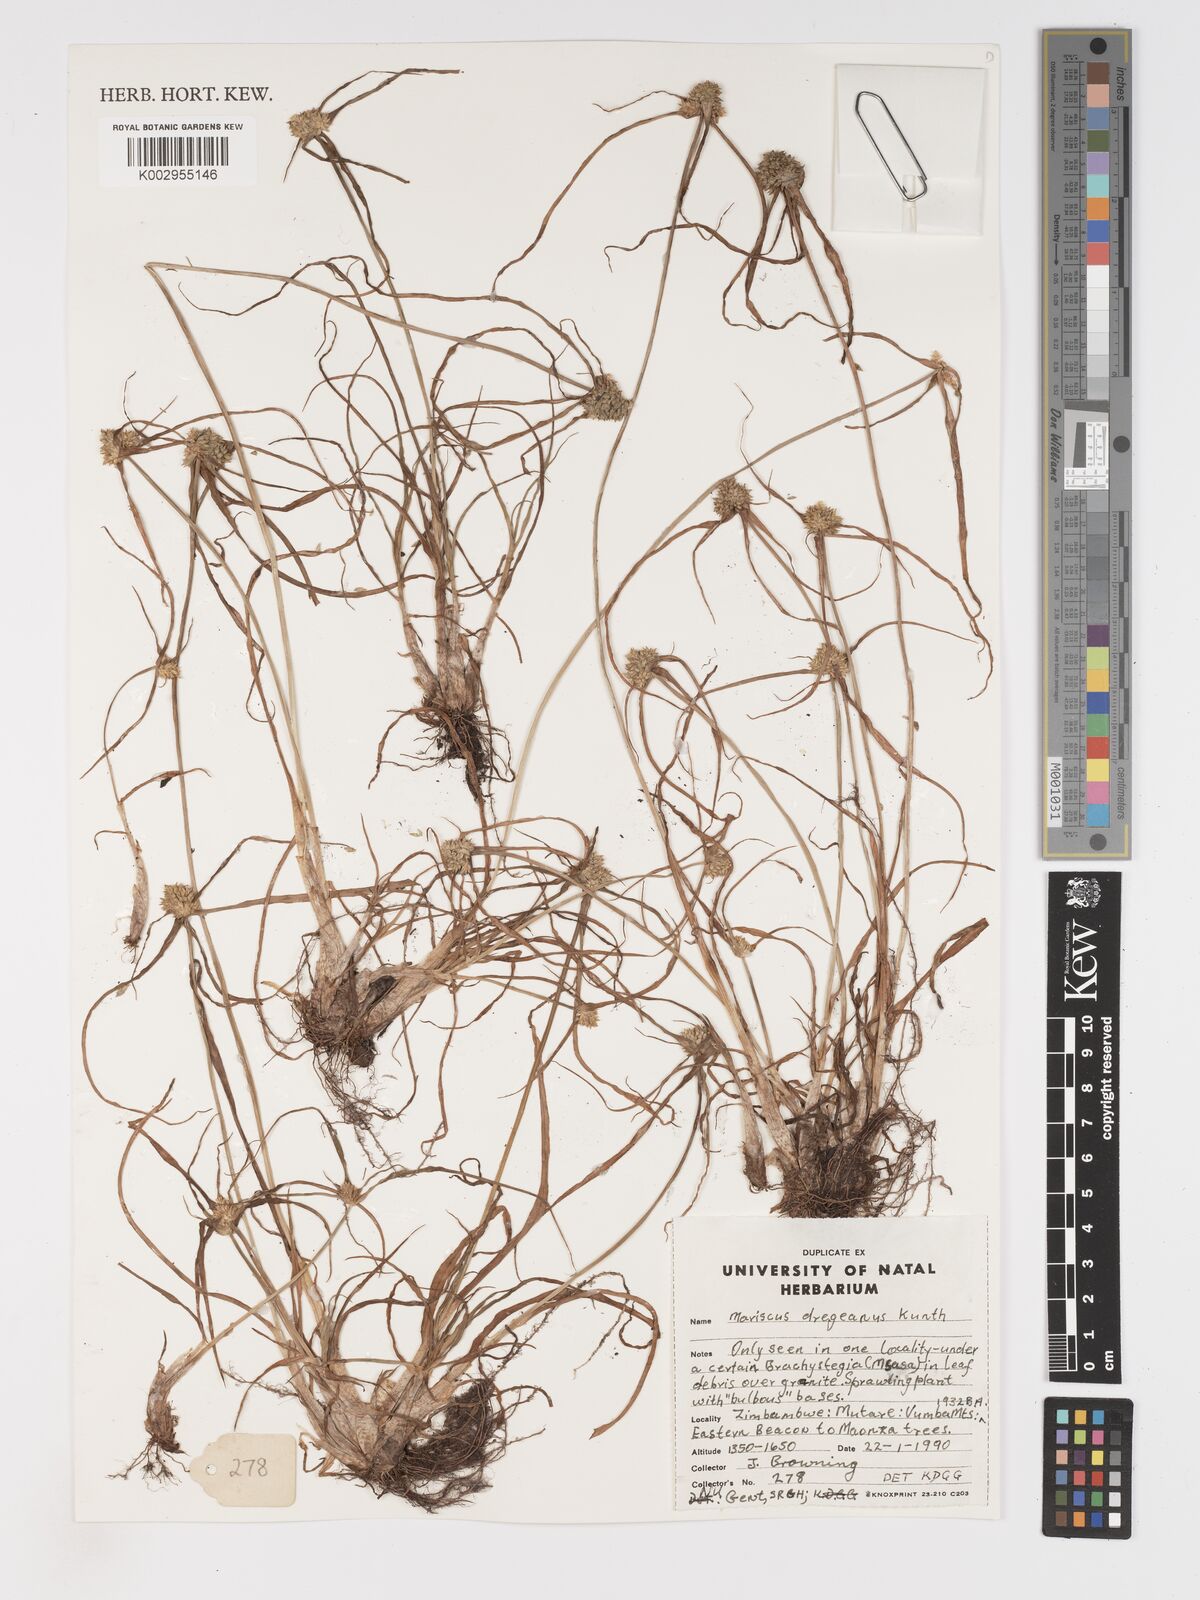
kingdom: Plantae
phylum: Tracheophyta
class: Liliopsida
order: Poales
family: Cyperaceae
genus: Cyperus
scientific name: Cyperus dubius
